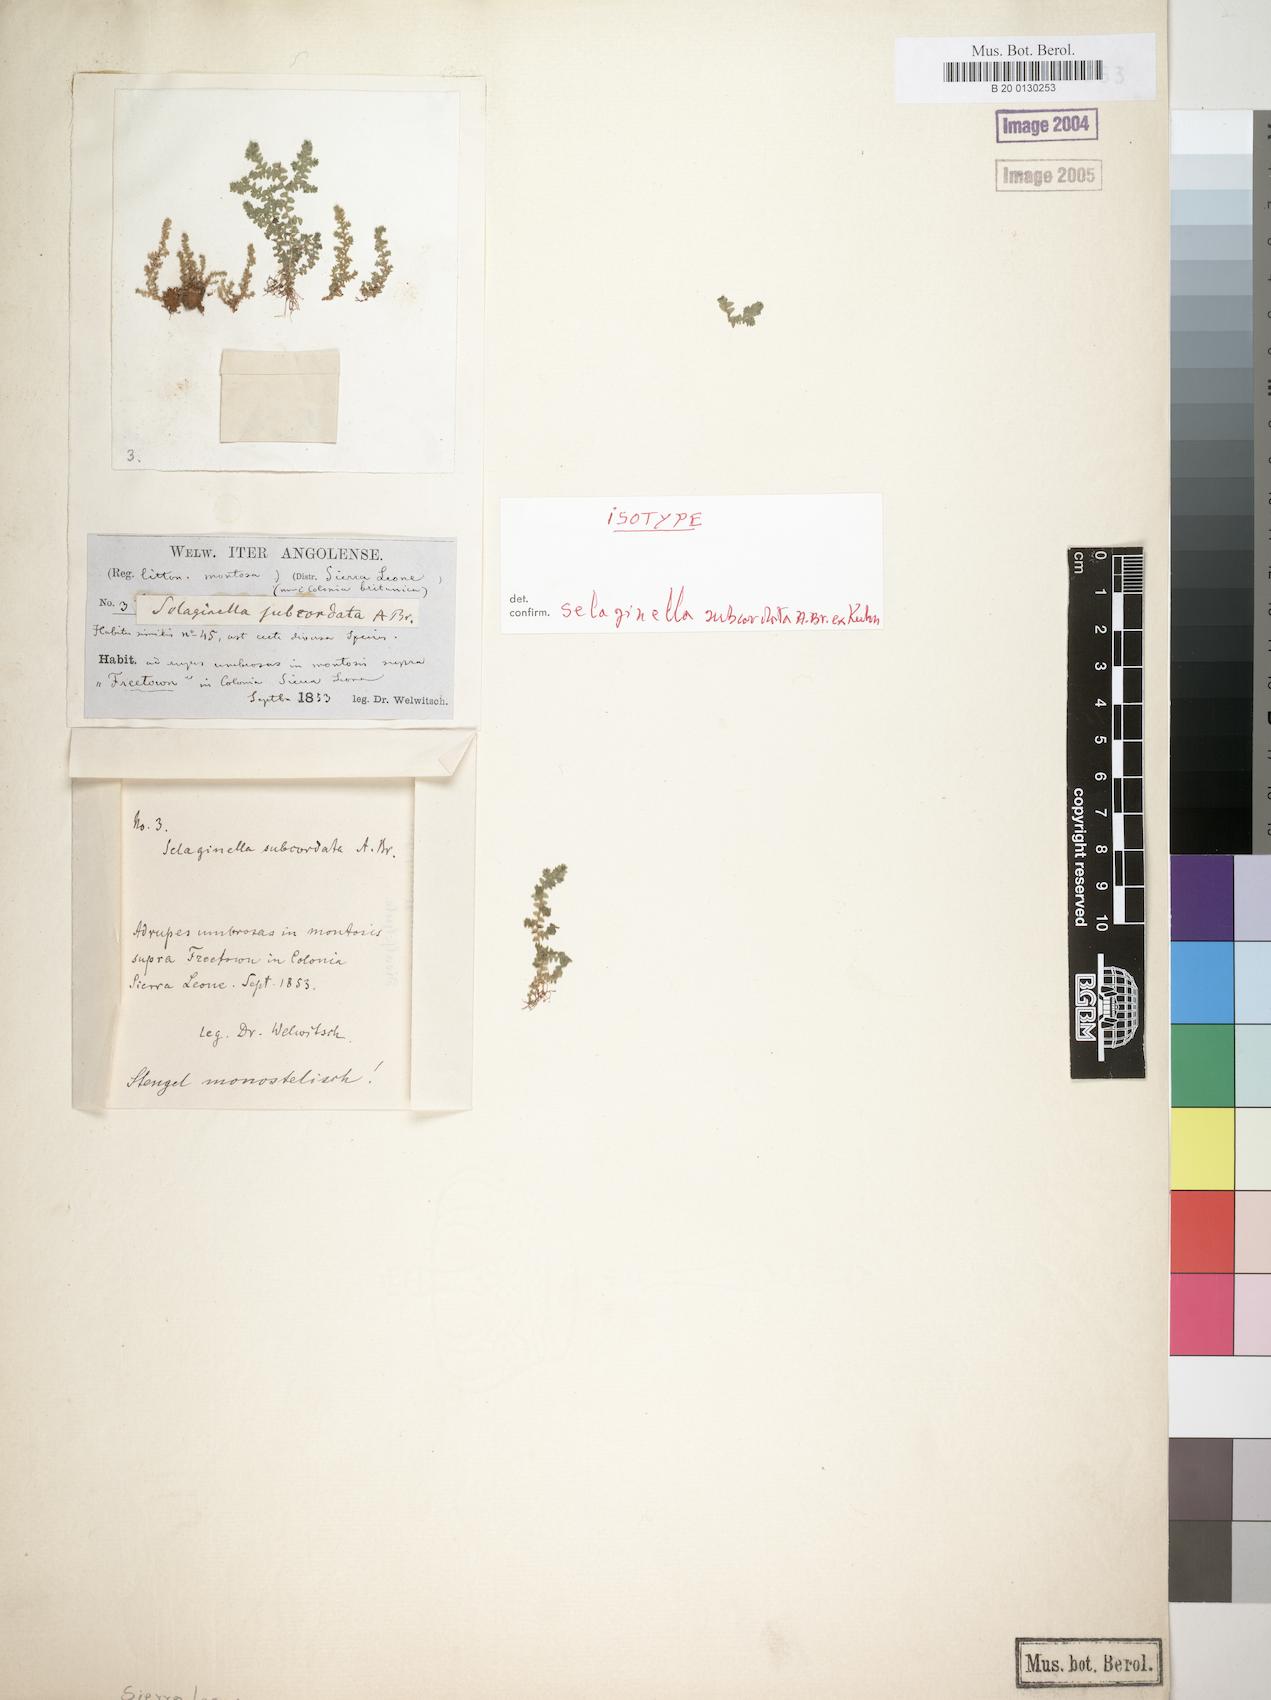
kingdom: Plantae
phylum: Tracheophyta
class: Lycopodiopsida
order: Selaginellales
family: Selaginellaceae
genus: Selaginella
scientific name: Selaginella subcordata
